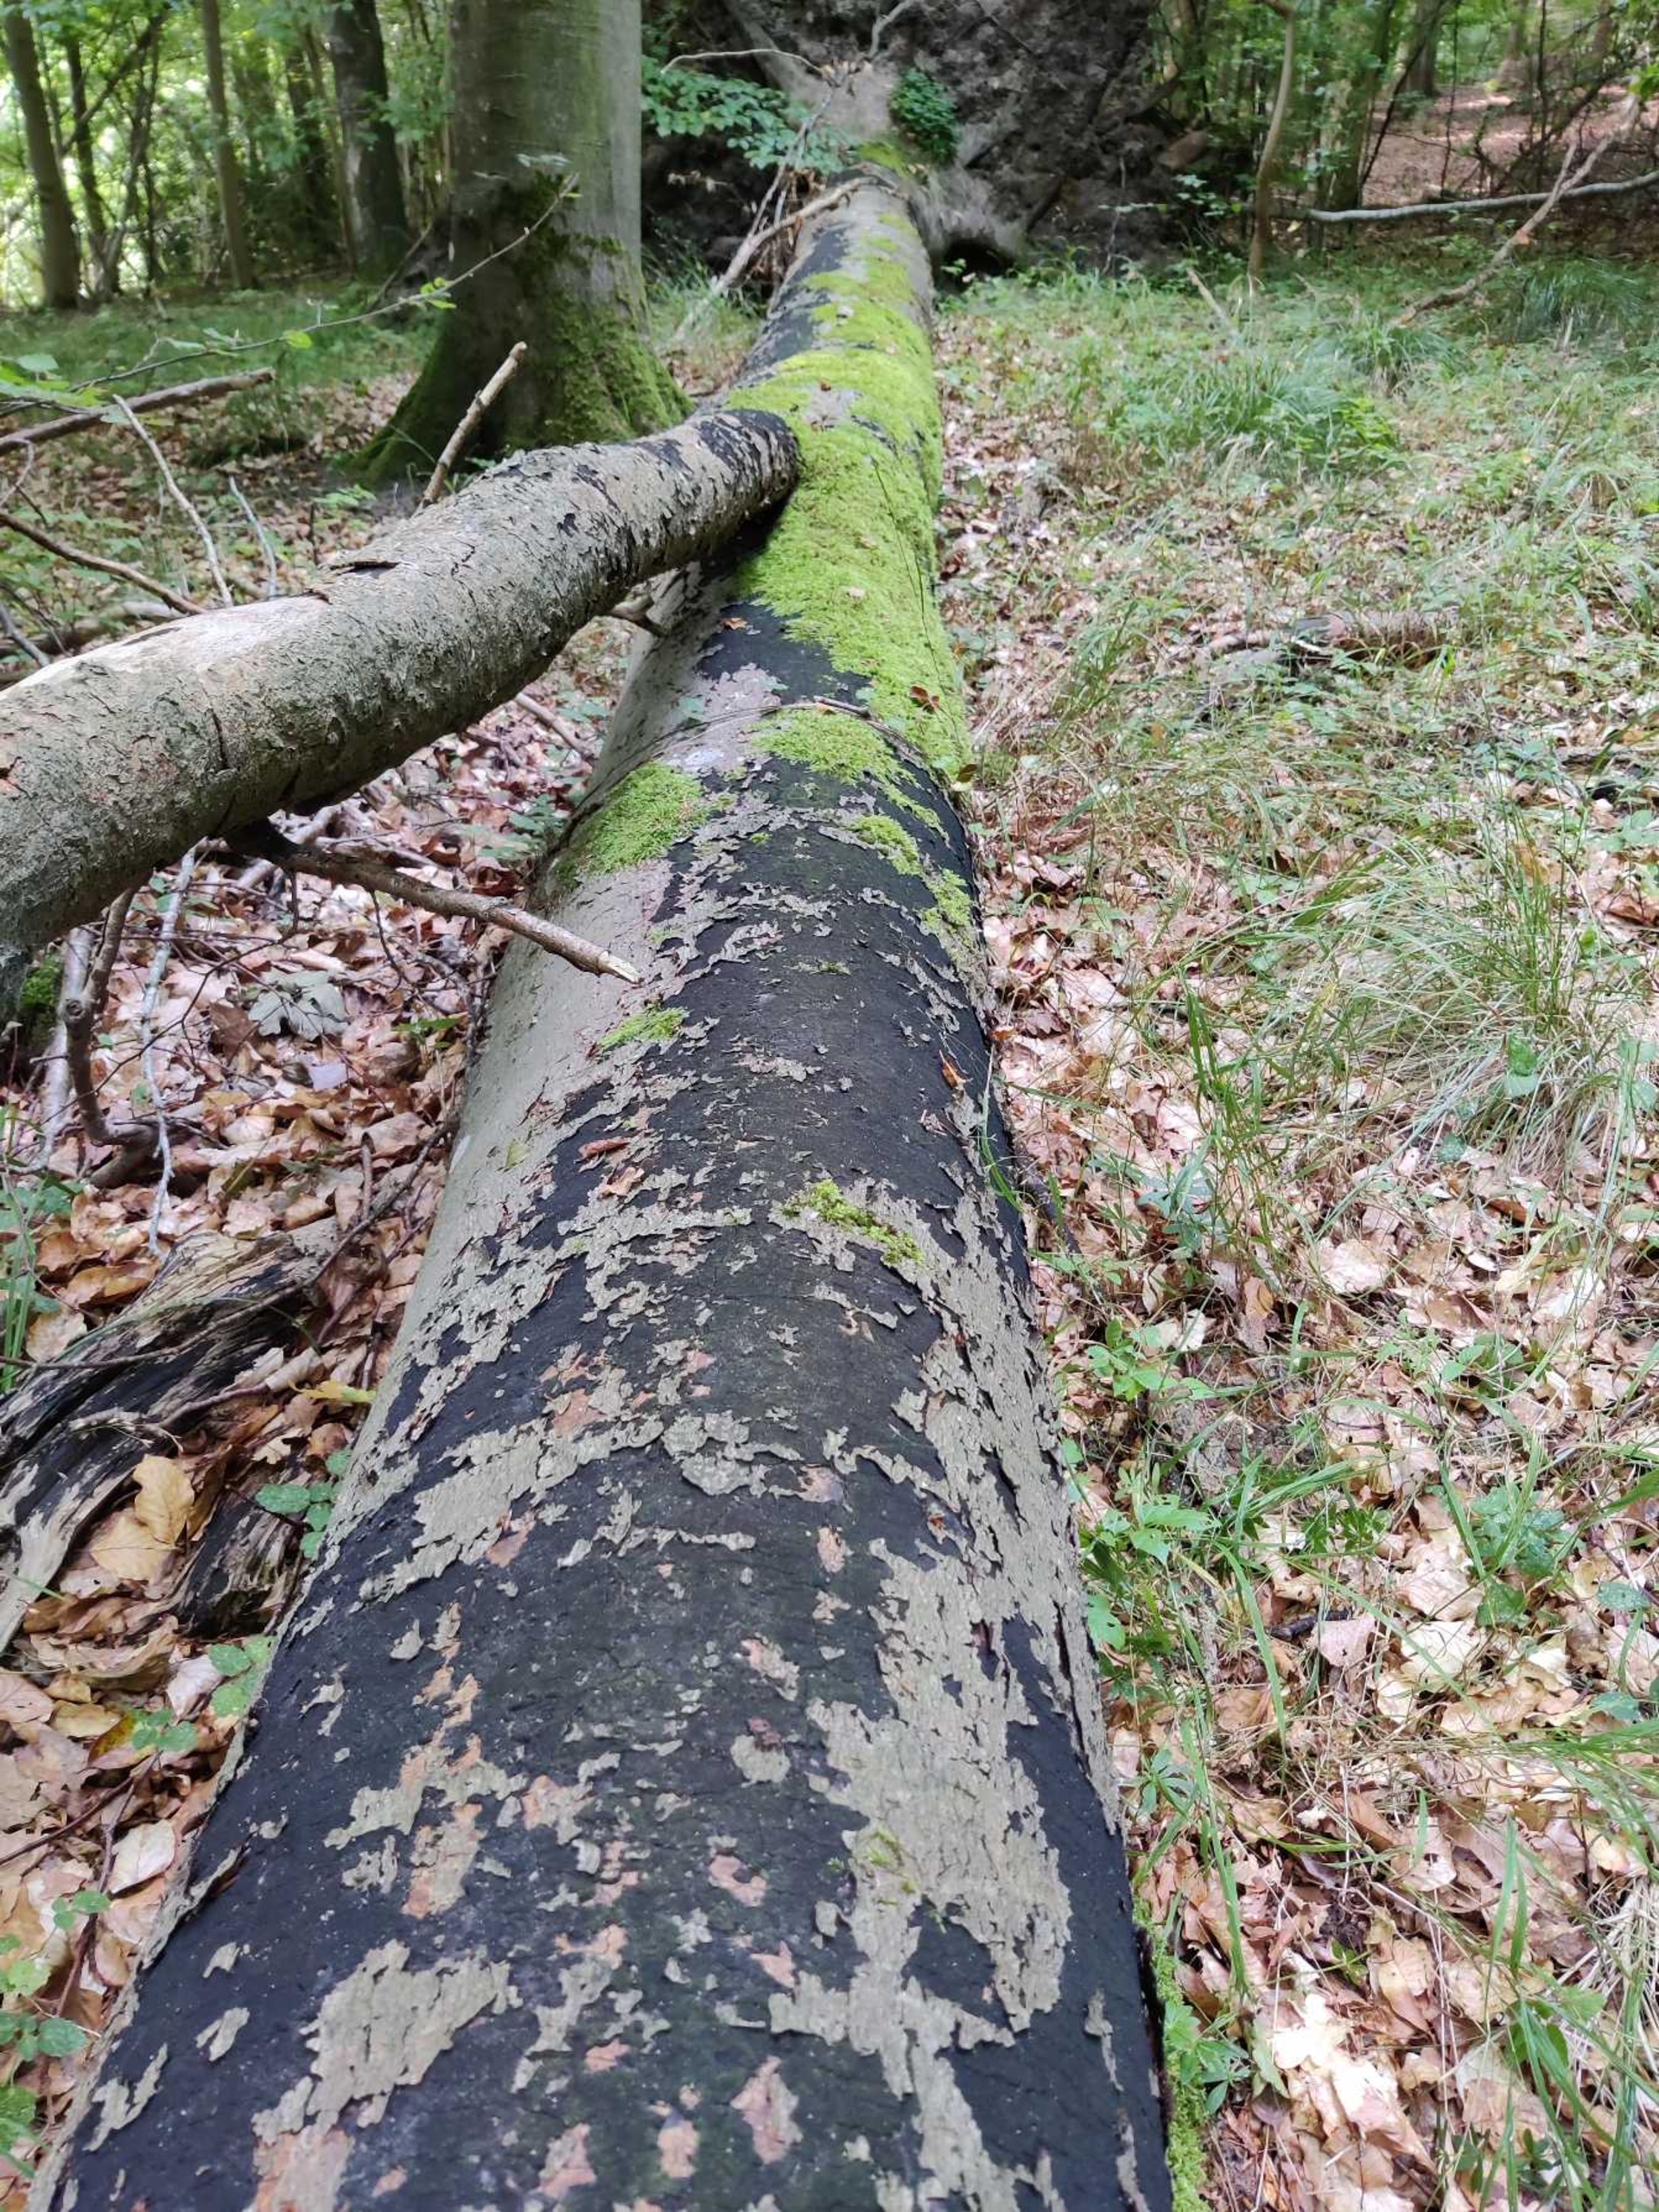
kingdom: Fungi
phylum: Ascomycota
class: Sordariomycetes
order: Xylariales
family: Diatrypaceae
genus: Eutypa
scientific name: Eutypa spinosa
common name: Grov kulskorpe
